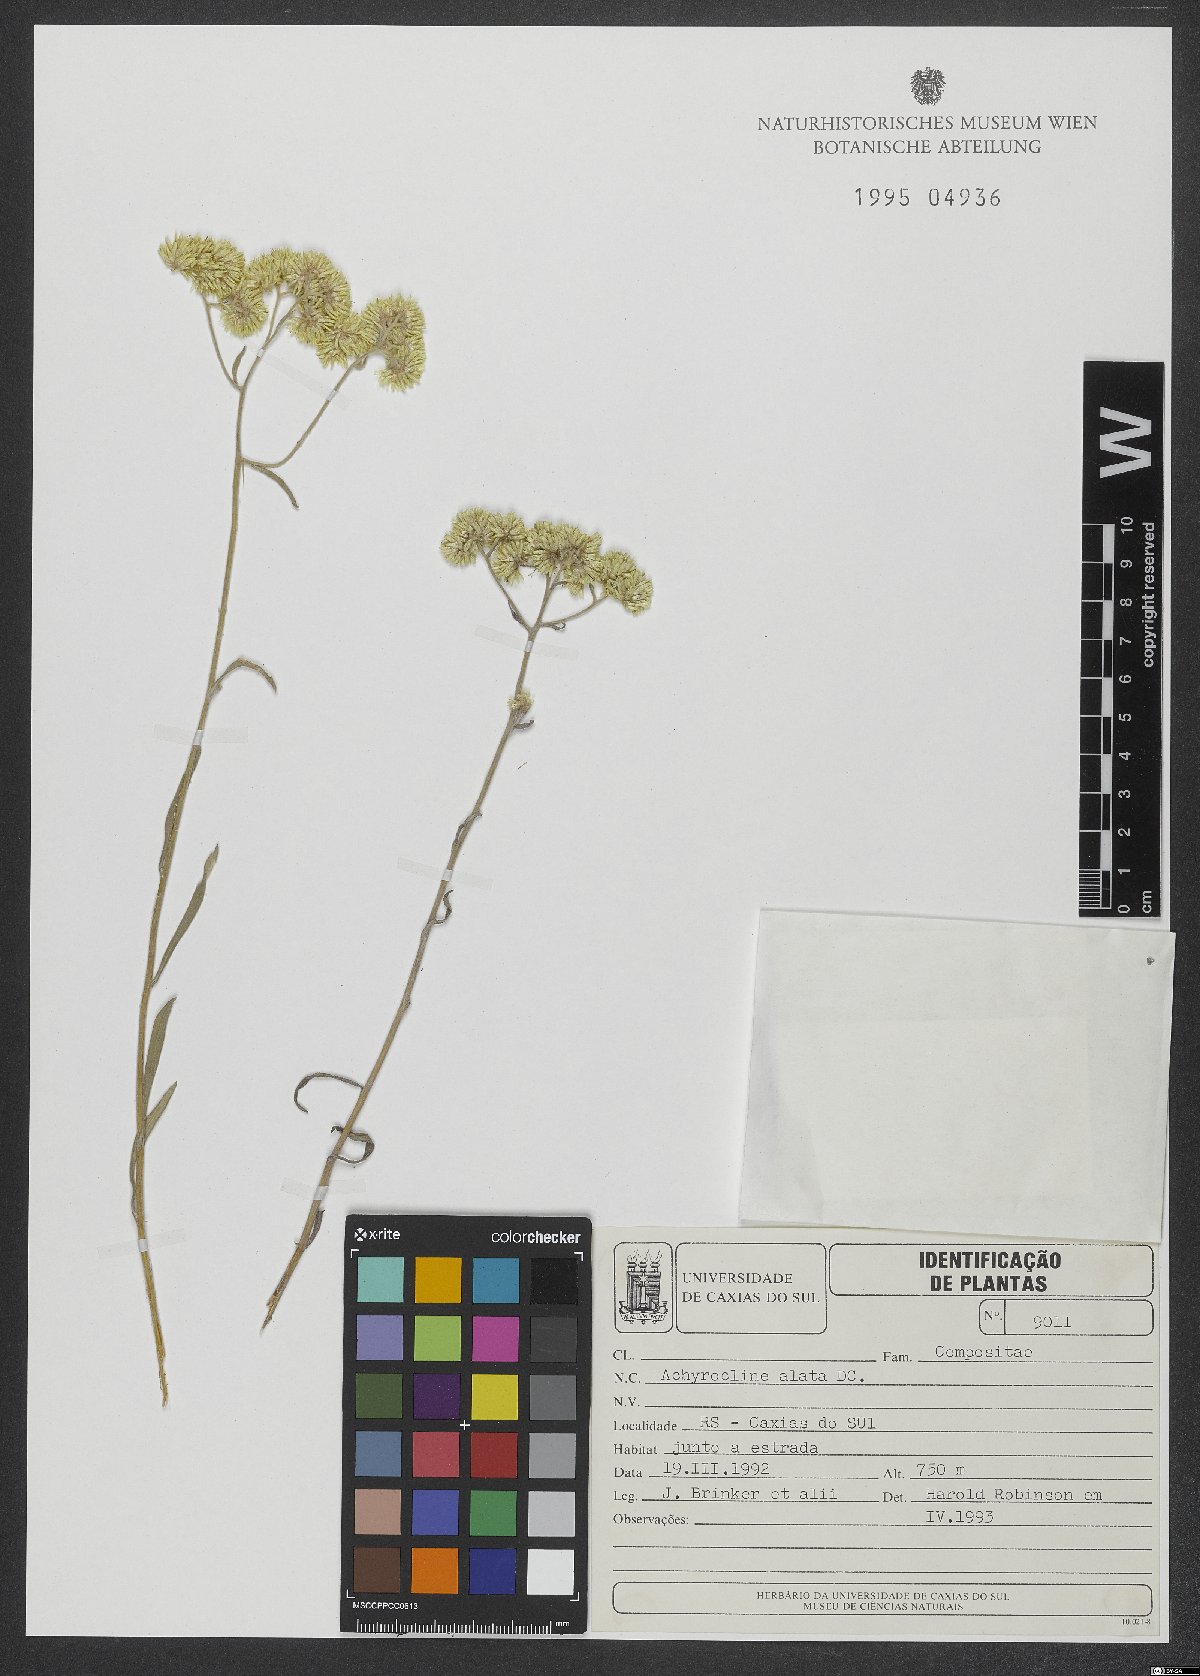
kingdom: Plantae
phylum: Tracheophyta
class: Magnoliopsida
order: Asterales
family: Asteraceae
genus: Achyrocline
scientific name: Achyrocline alata
